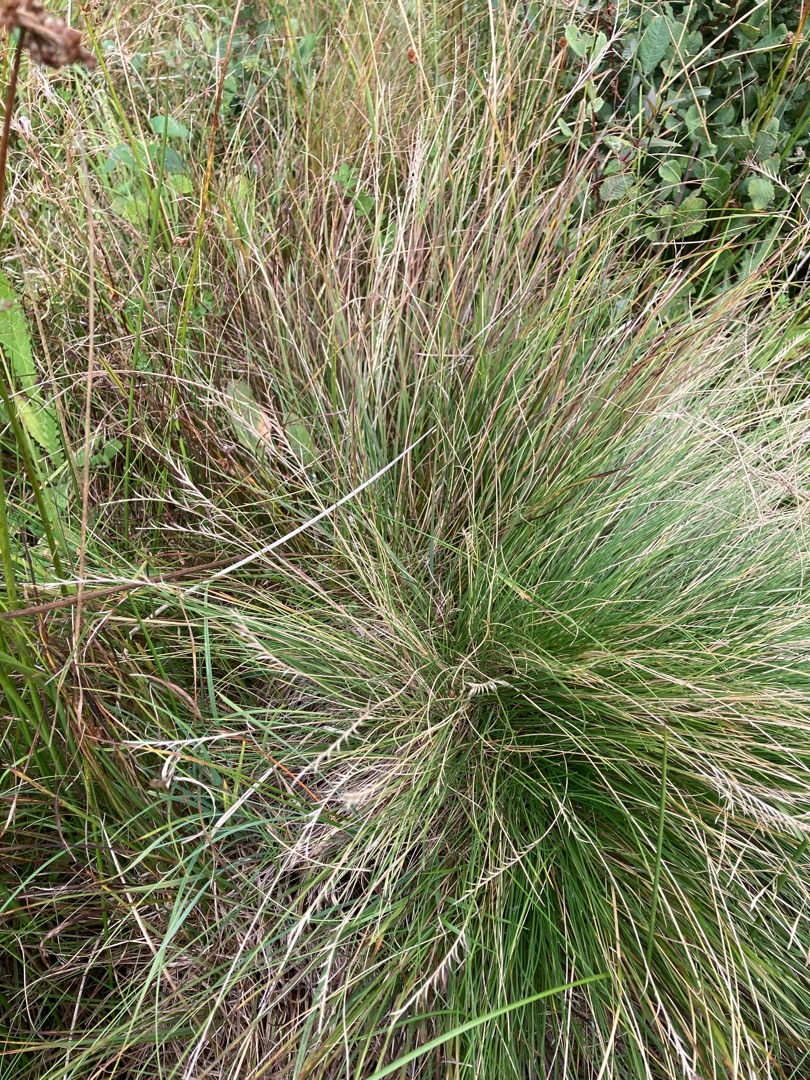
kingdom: Plantae
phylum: Tracheophyta
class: Liliopsida
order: Poales
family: Poaceae
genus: Nardus
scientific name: Nardus stricta
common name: Katteskæg
